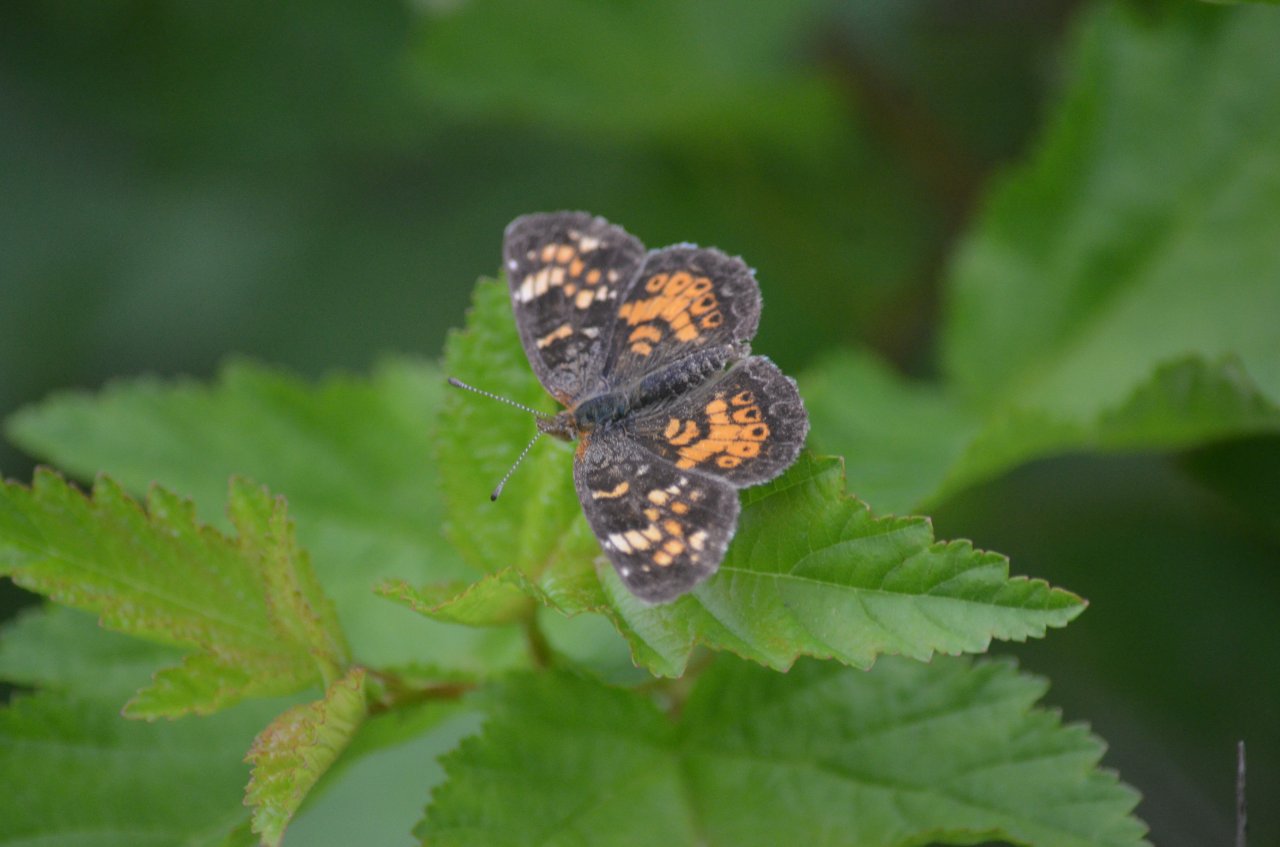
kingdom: Animalia
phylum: Arthropoda
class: Insecta
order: Lepidoptera
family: Nymphalidae
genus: Phyciodes
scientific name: Phyciodes tharos
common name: Northern Crescent
